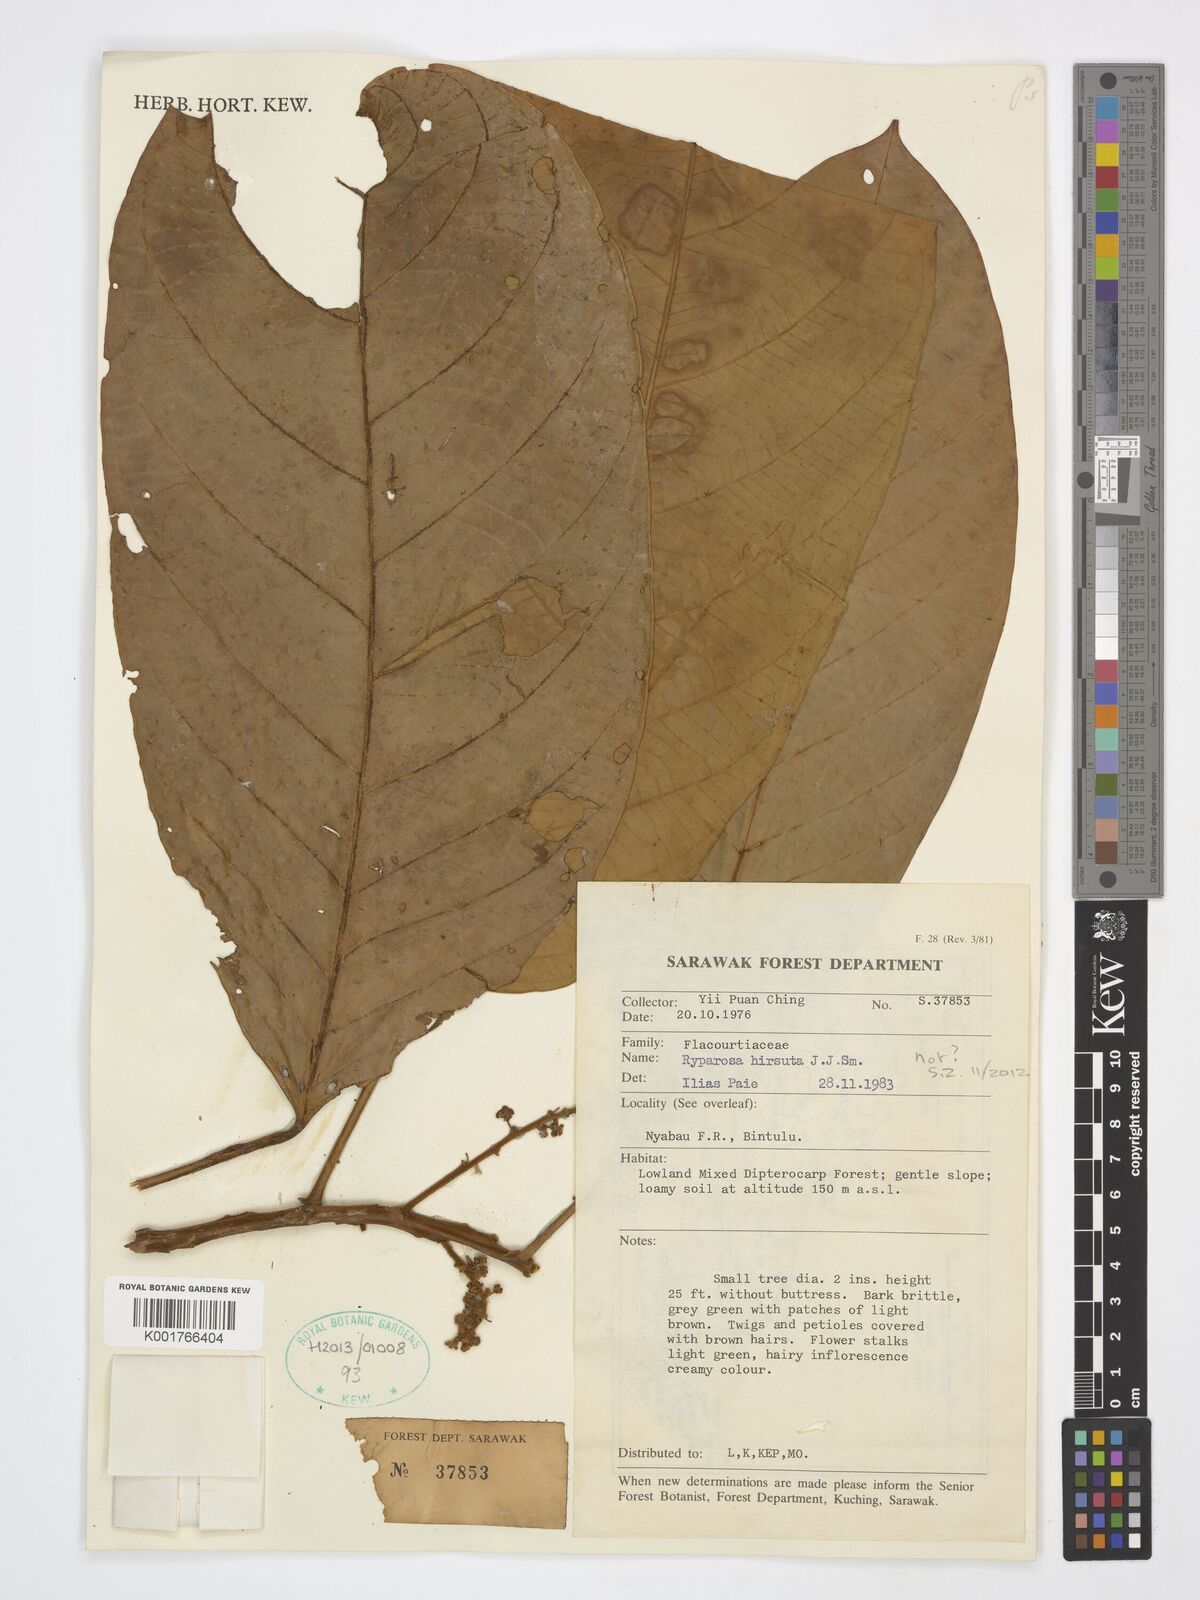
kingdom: Plantae
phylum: Tracheophyta
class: Magnoliopsida
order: Malpighiales
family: Achariaceae
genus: Ryparosa
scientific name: Ryparosa hirsuta
